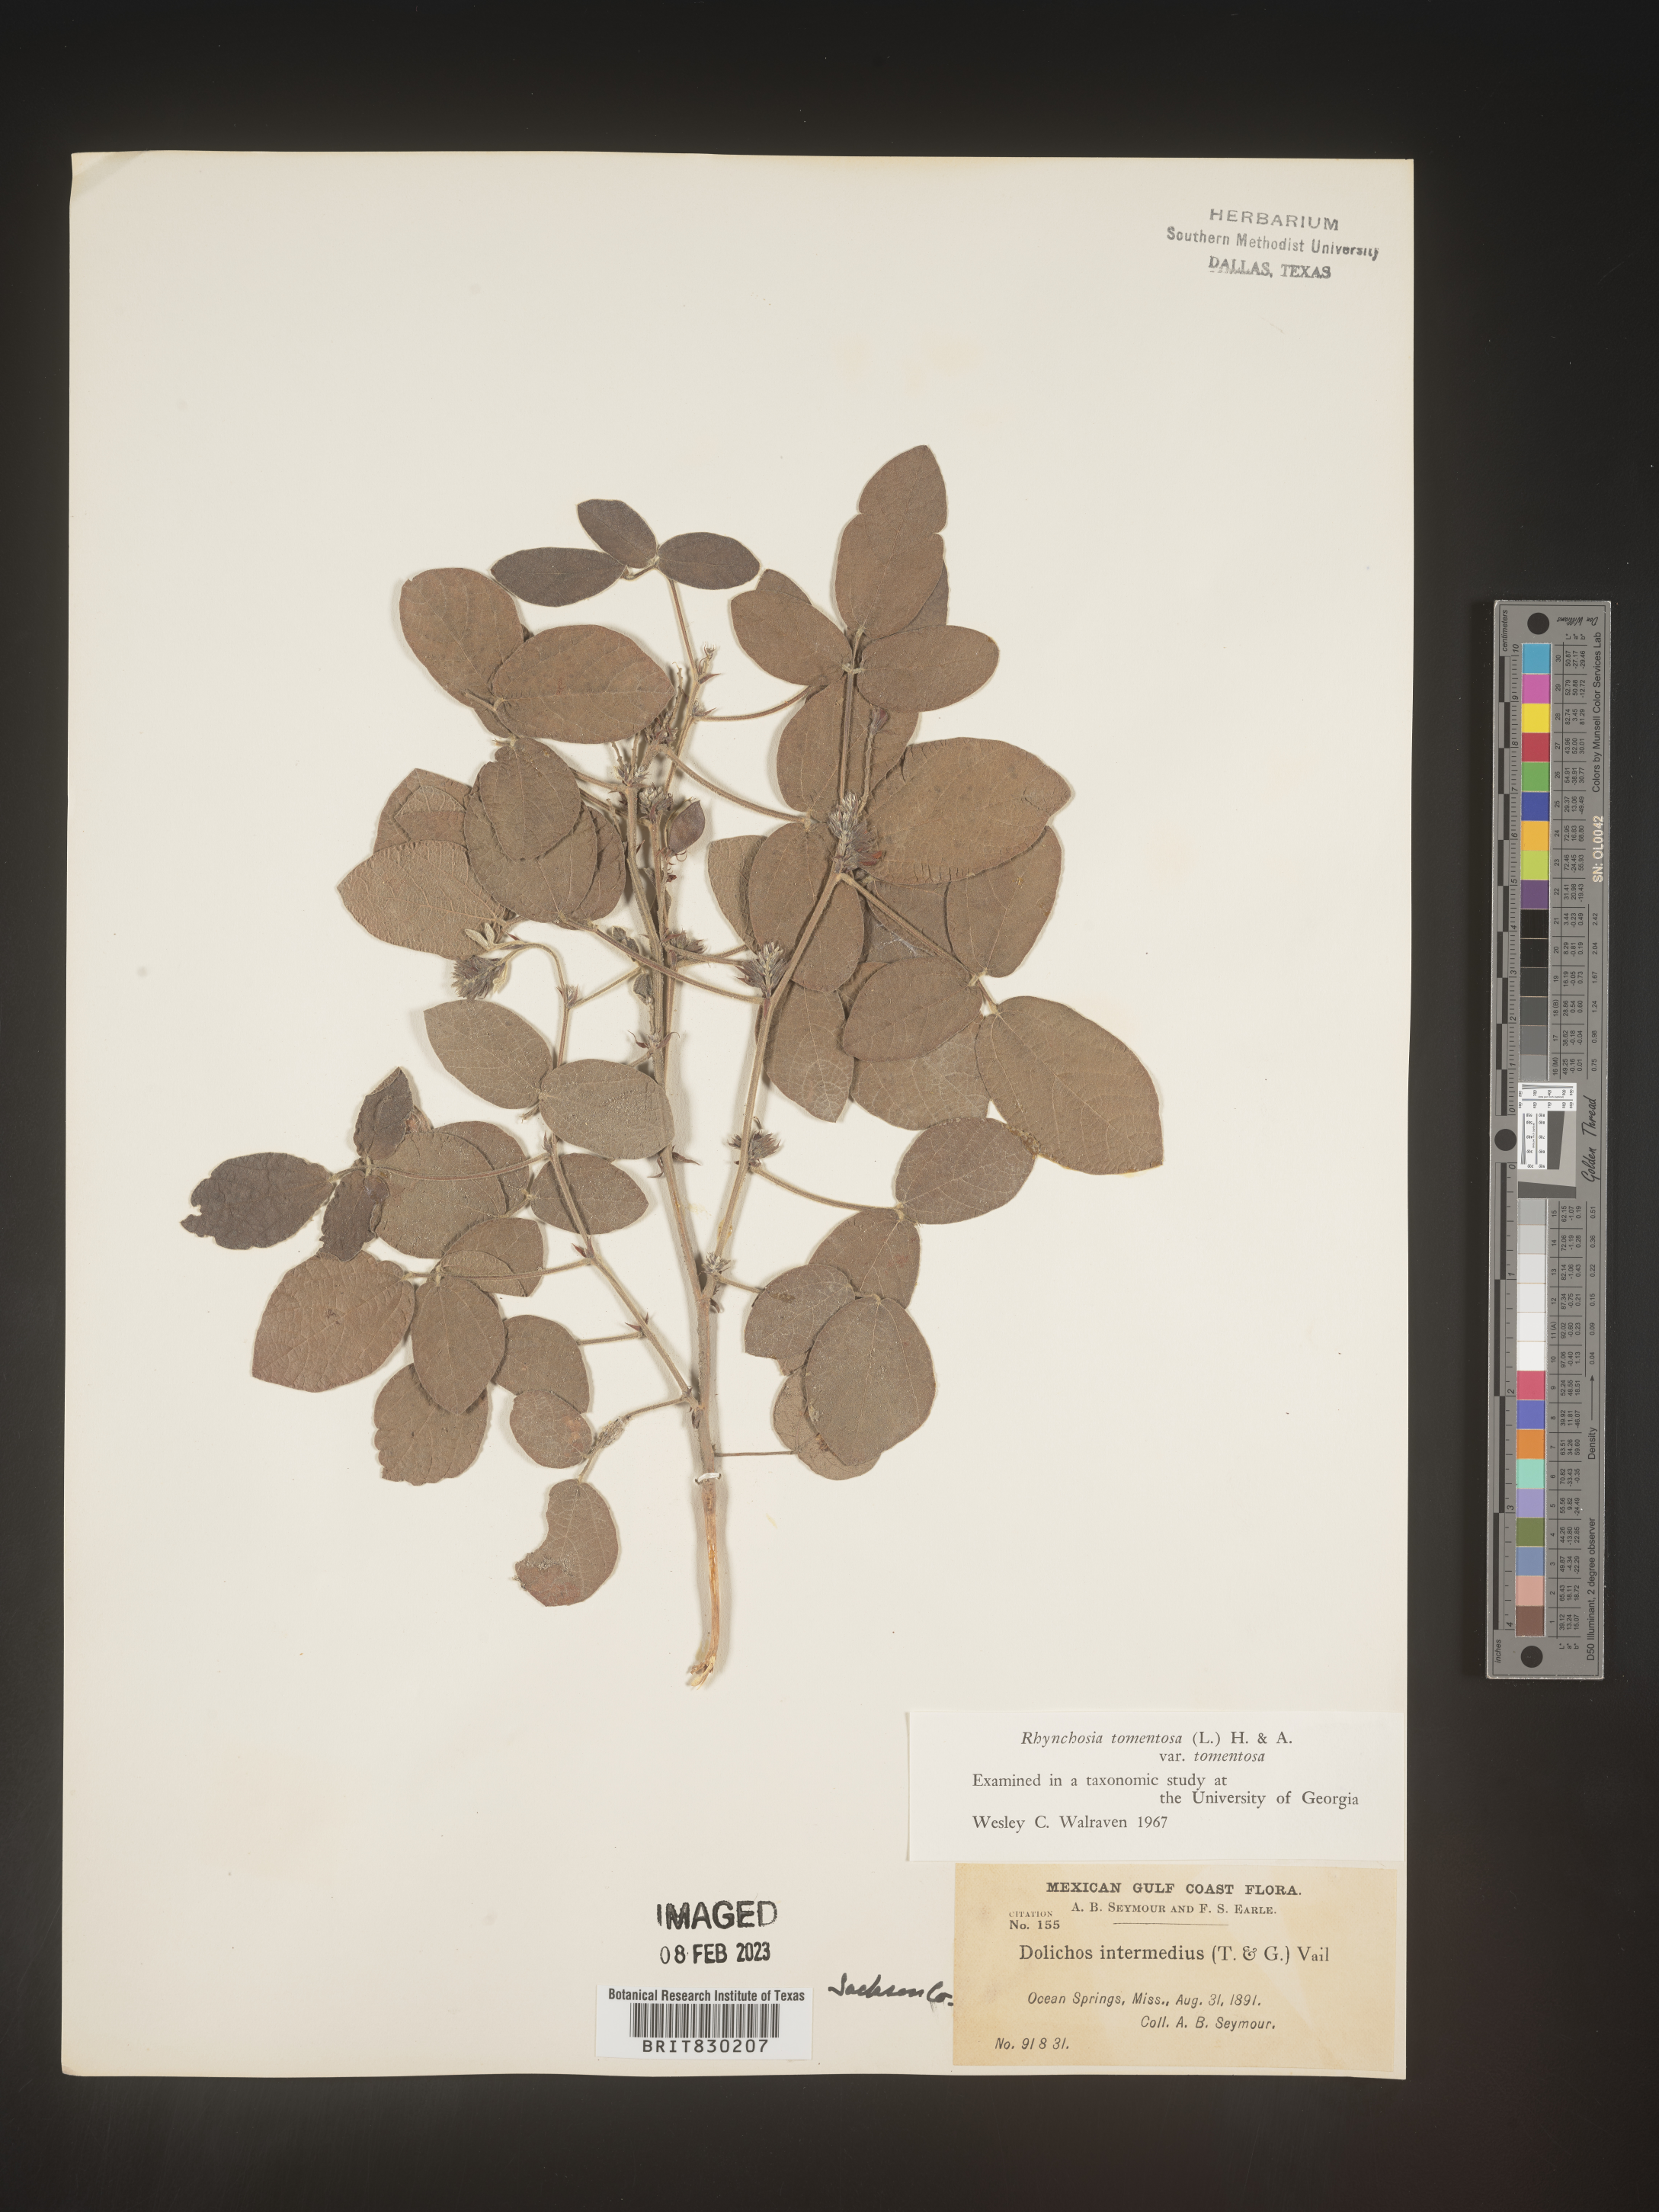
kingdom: Plantae
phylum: Tracheophyta
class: Magnoliopsida
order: Fabales
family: Fabaceae
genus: Rhynchosia
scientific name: Rhynchosia rothii
